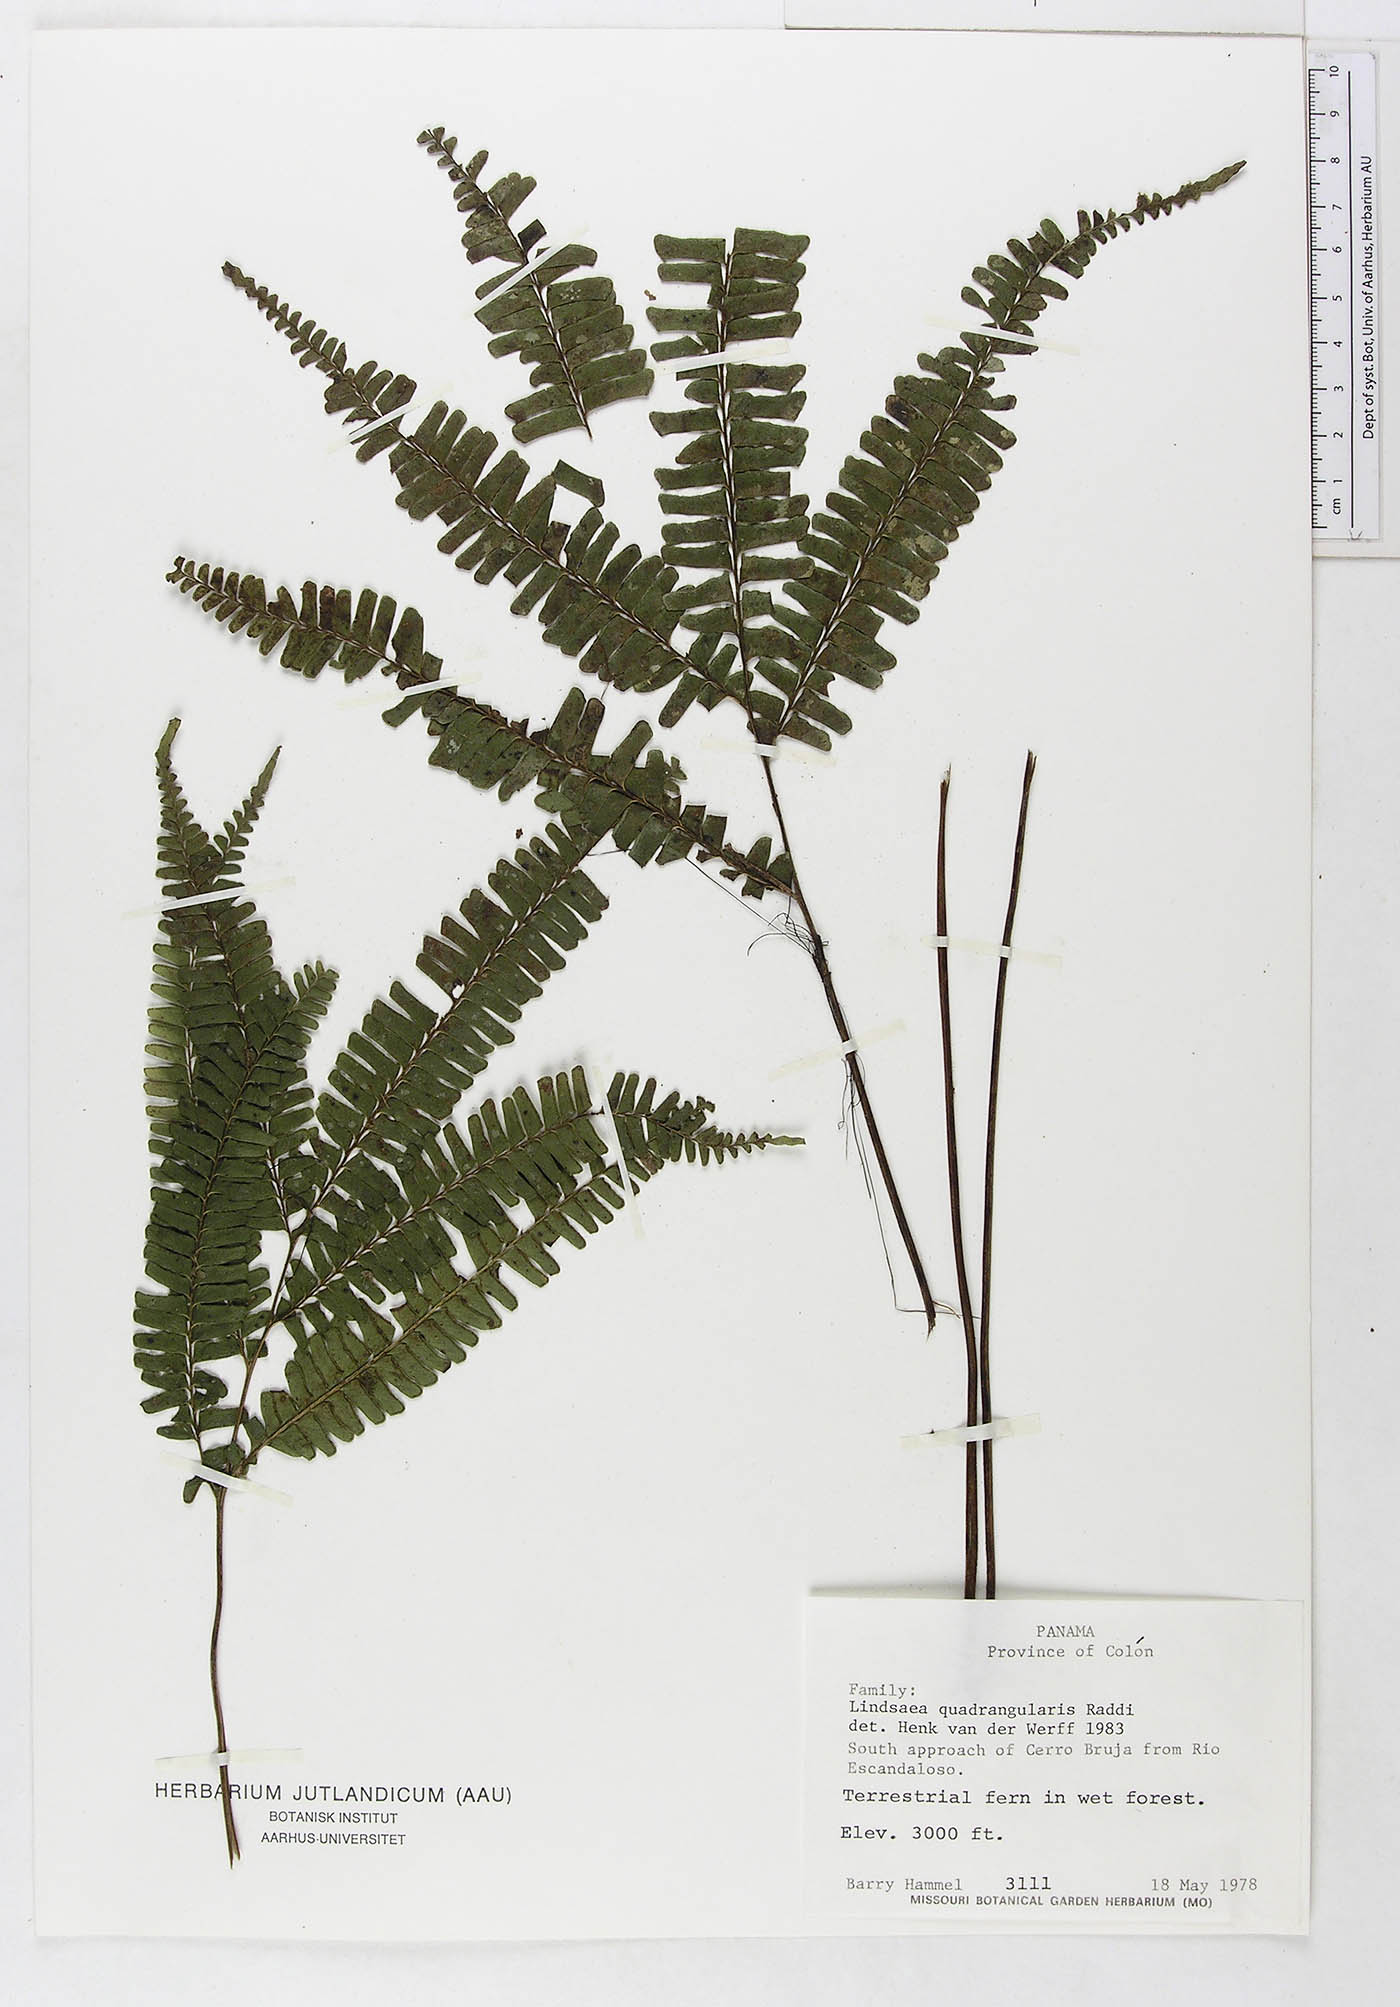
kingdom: Plantae
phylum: Tracheophyta
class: Polypodiopsida
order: Polypodiales
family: Lindsaeaceae
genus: Lindsaea
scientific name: Lindsaea quadrangularis
